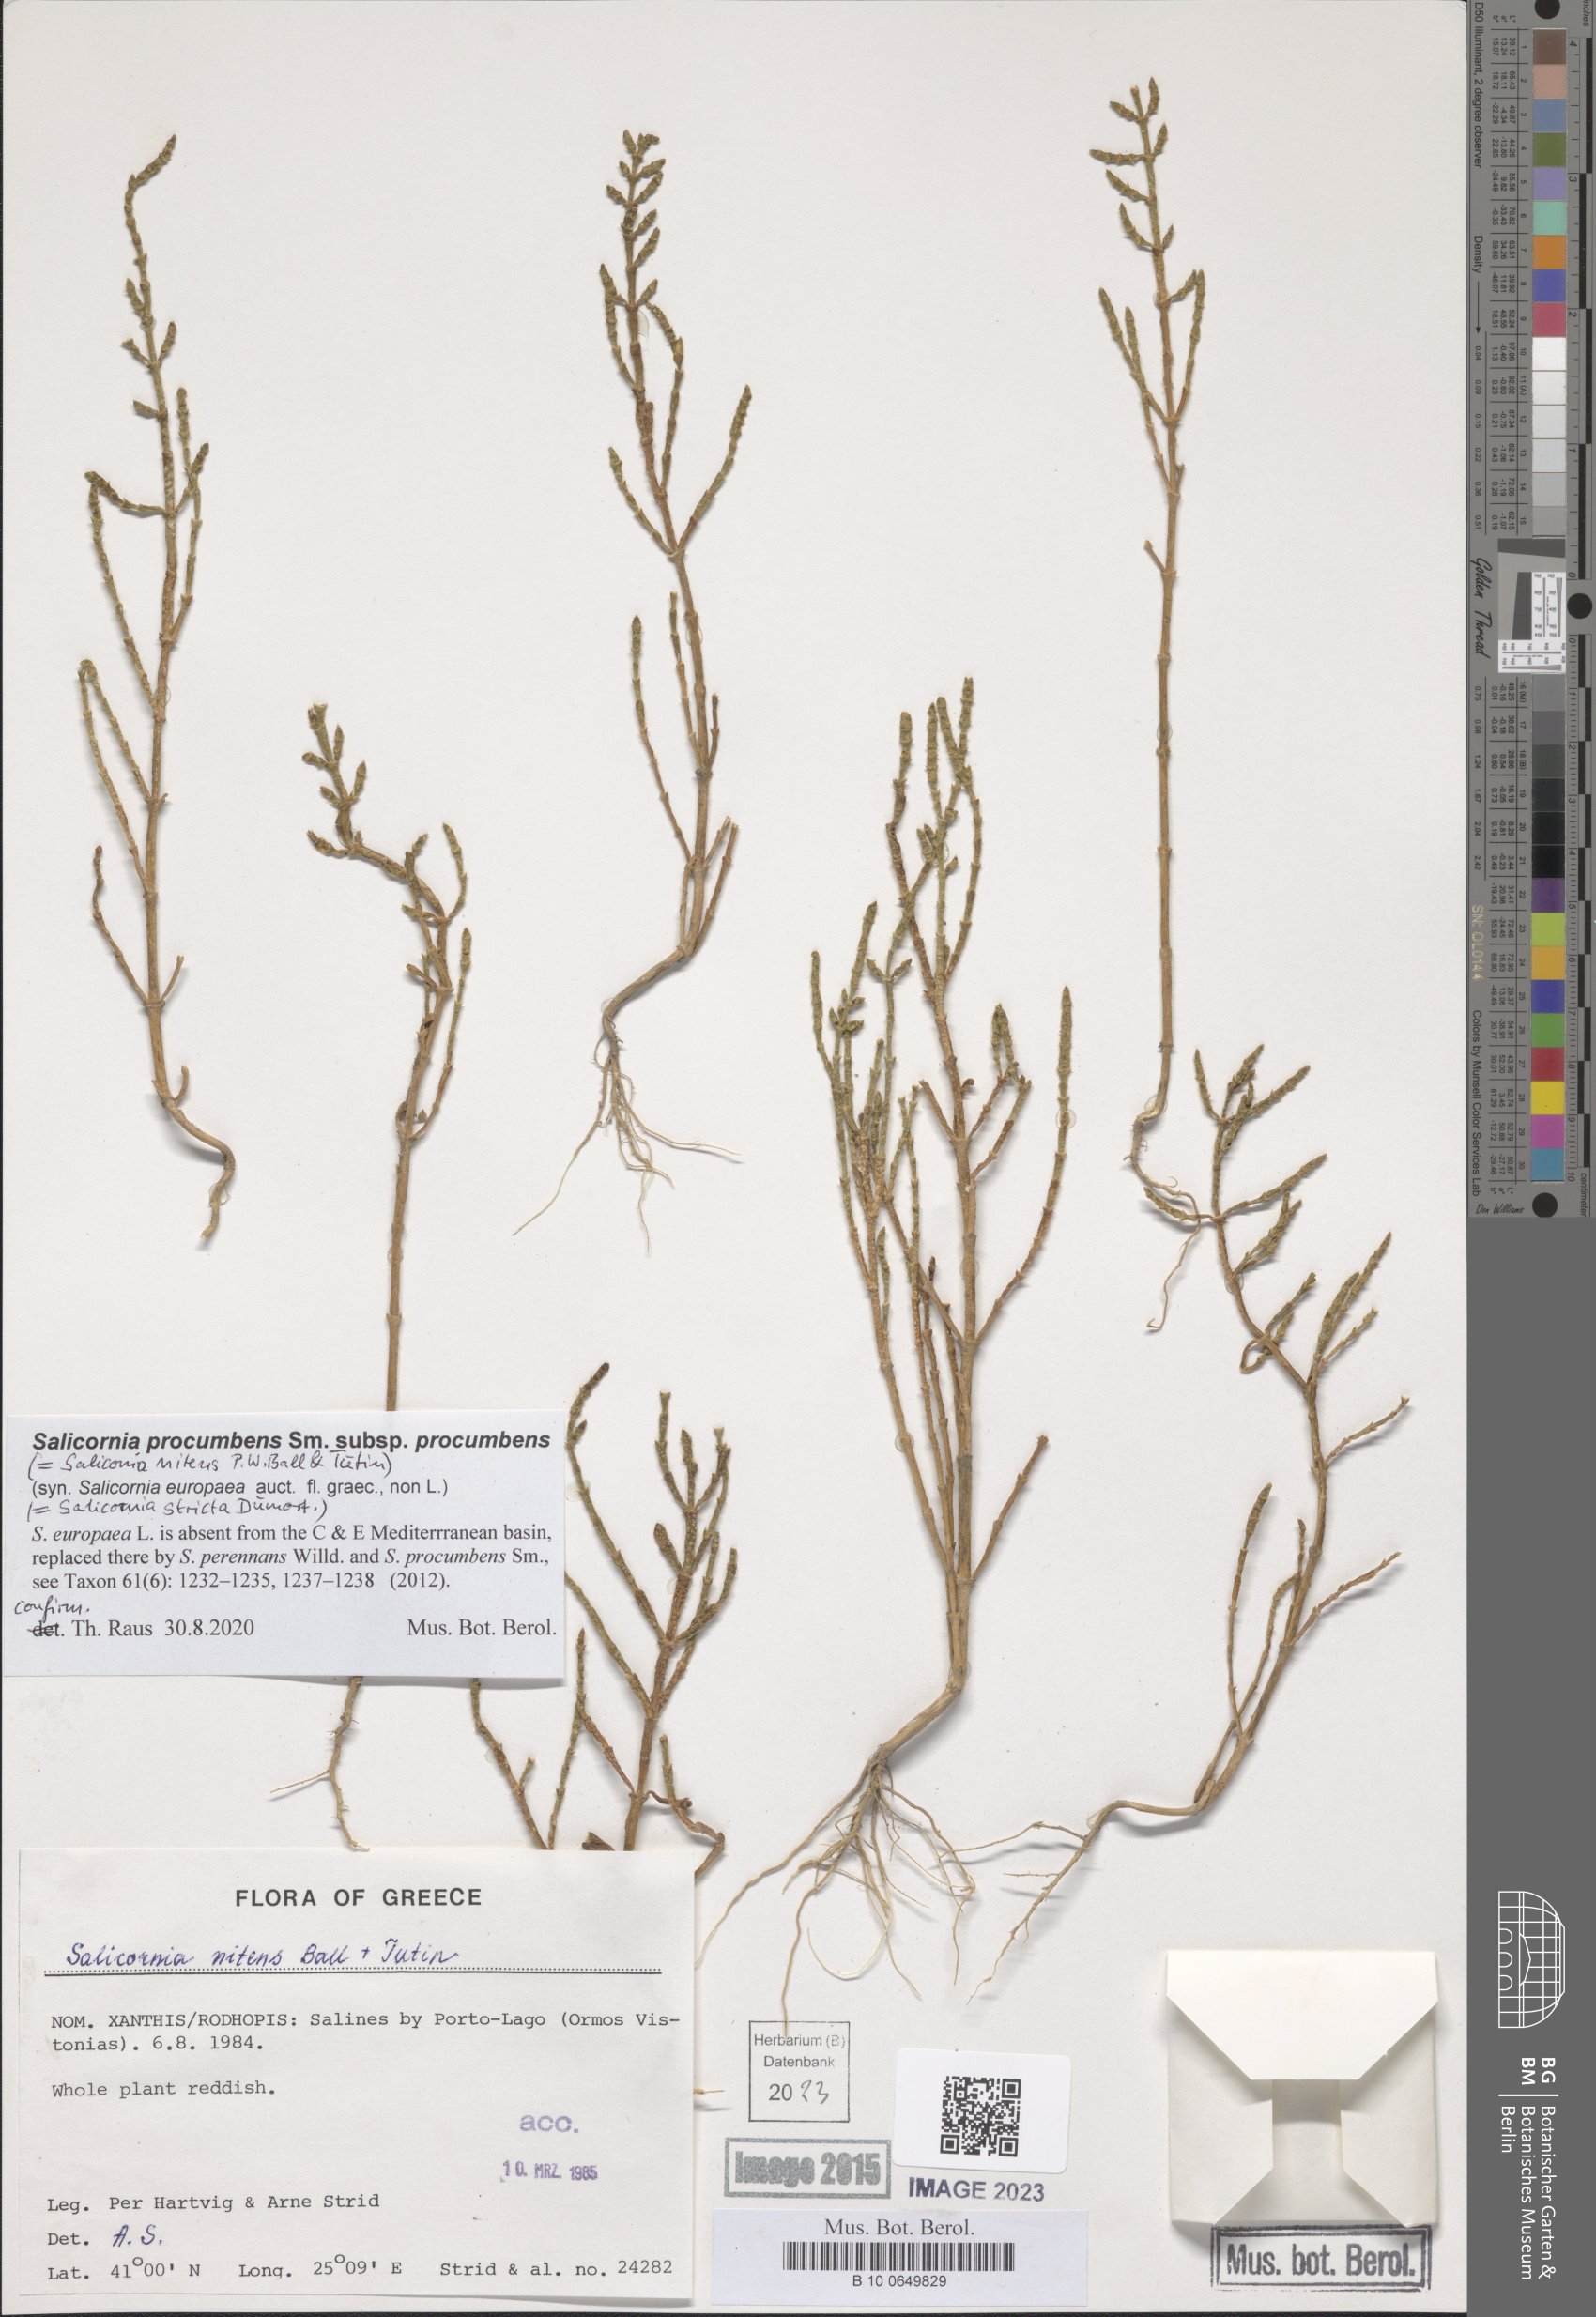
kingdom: Plantae
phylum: Tracheophyta
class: Magnoliopsida
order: Caryophyllales
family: Amaranthaceae
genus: Salicornia
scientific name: Salicornia procumbens
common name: Long-spiked glasswort
